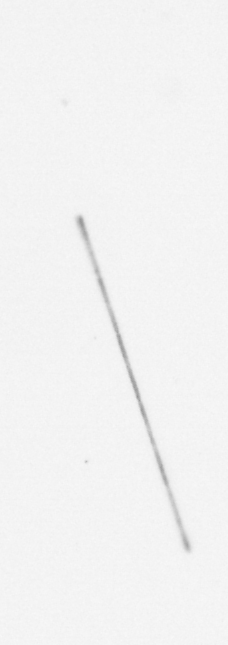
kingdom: Chromista
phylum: Ochrophyta
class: Bacillariophyceae
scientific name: Bacillariophyceae
